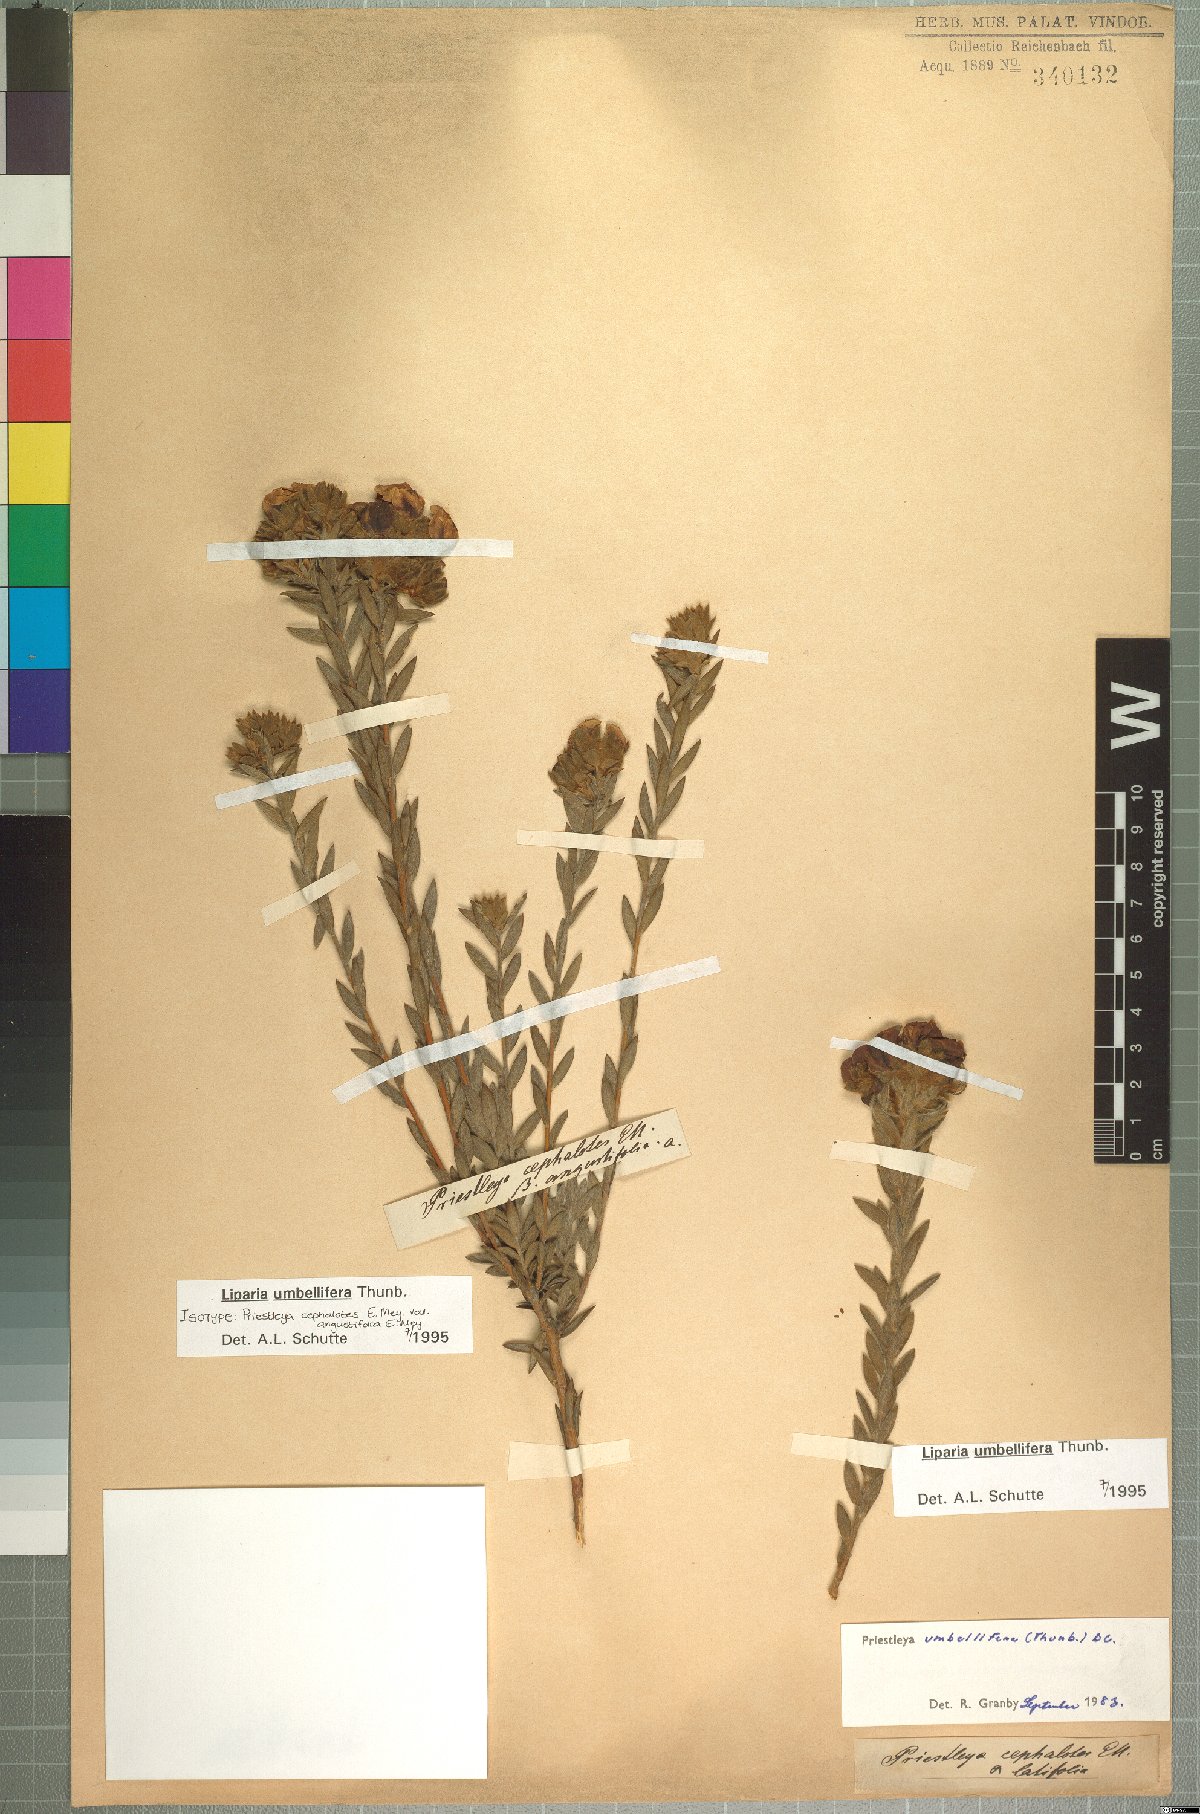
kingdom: Plantae
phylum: Tracheophyta
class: Magnoliopsida
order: Fabales
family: Fabaceae
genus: Liparia
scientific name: Liparia umbellifera
